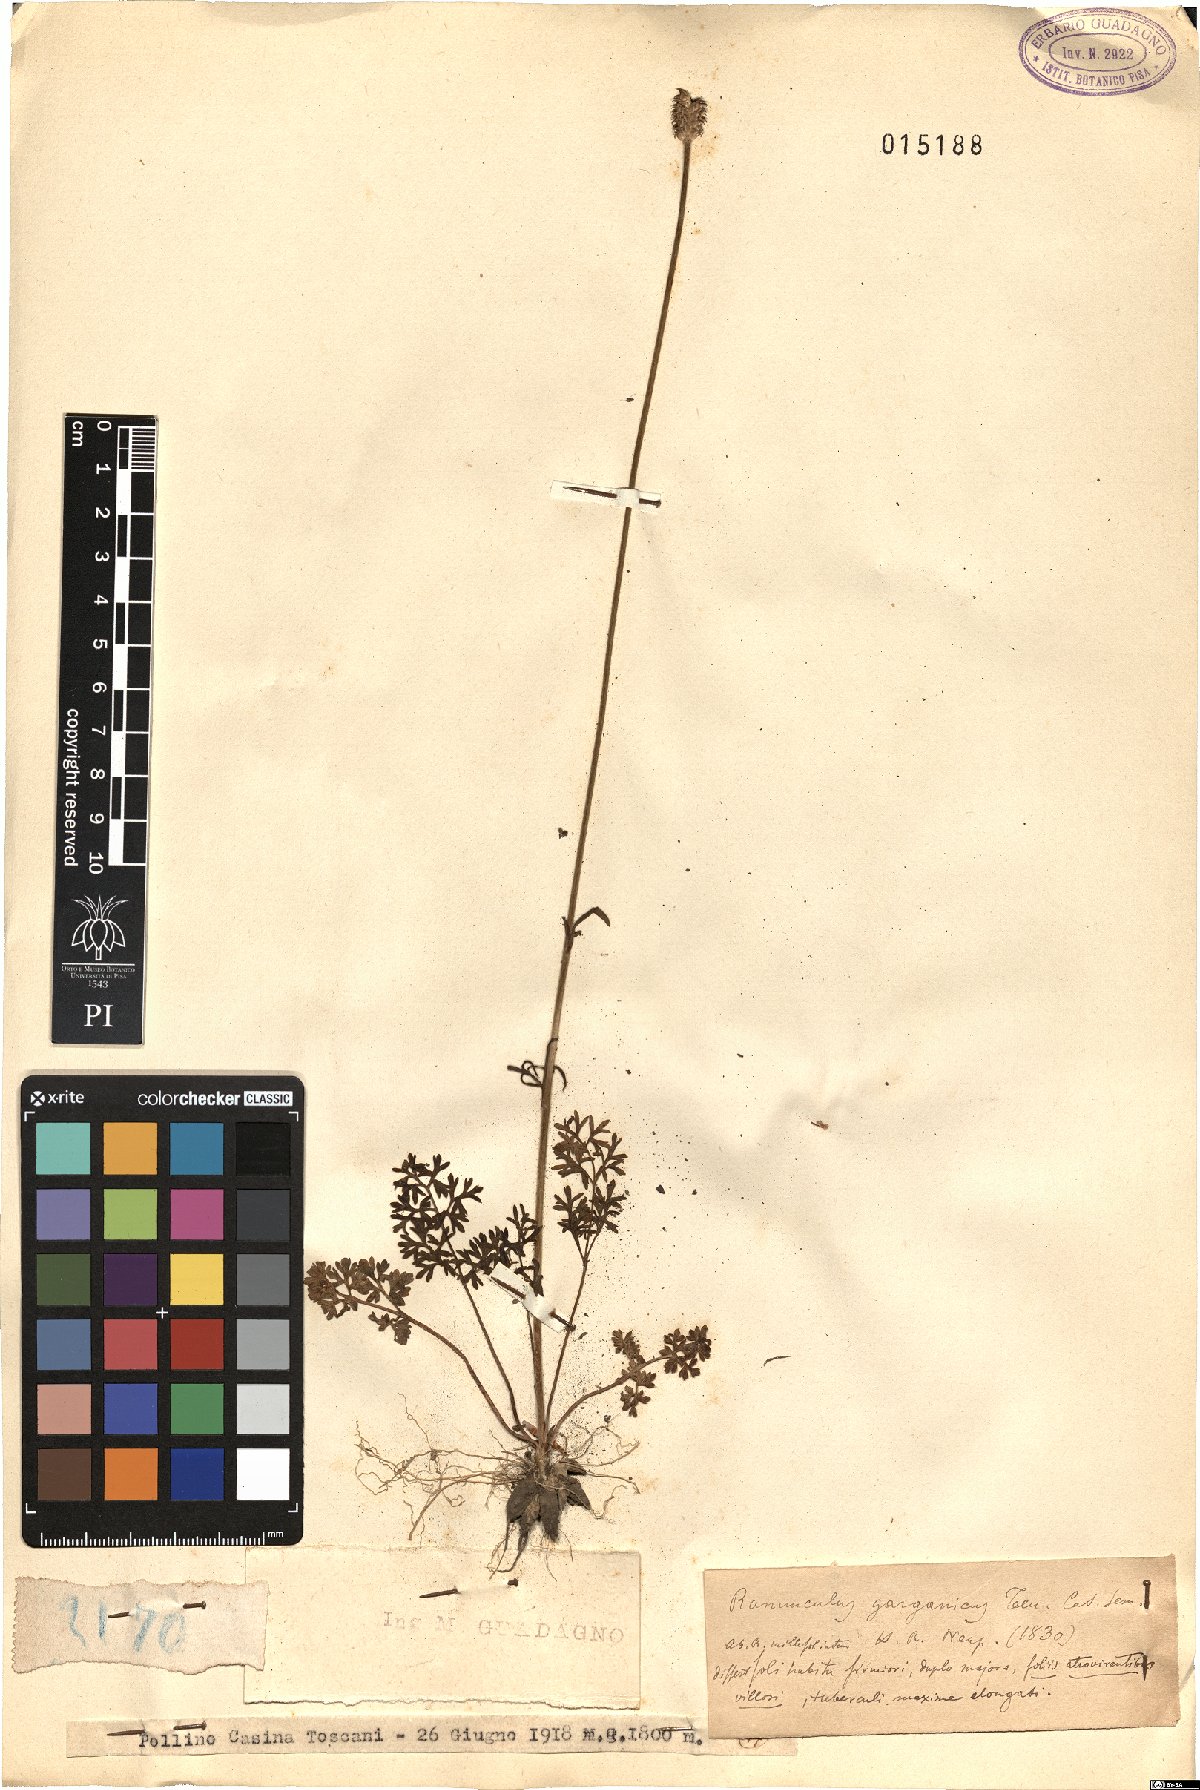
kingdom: Plantae
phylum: Tracheophyta
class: Magnoliopsida
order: Ranunculales
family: Ranunculaceae
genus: Ranunculus
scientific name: Ranunculus garganicus
